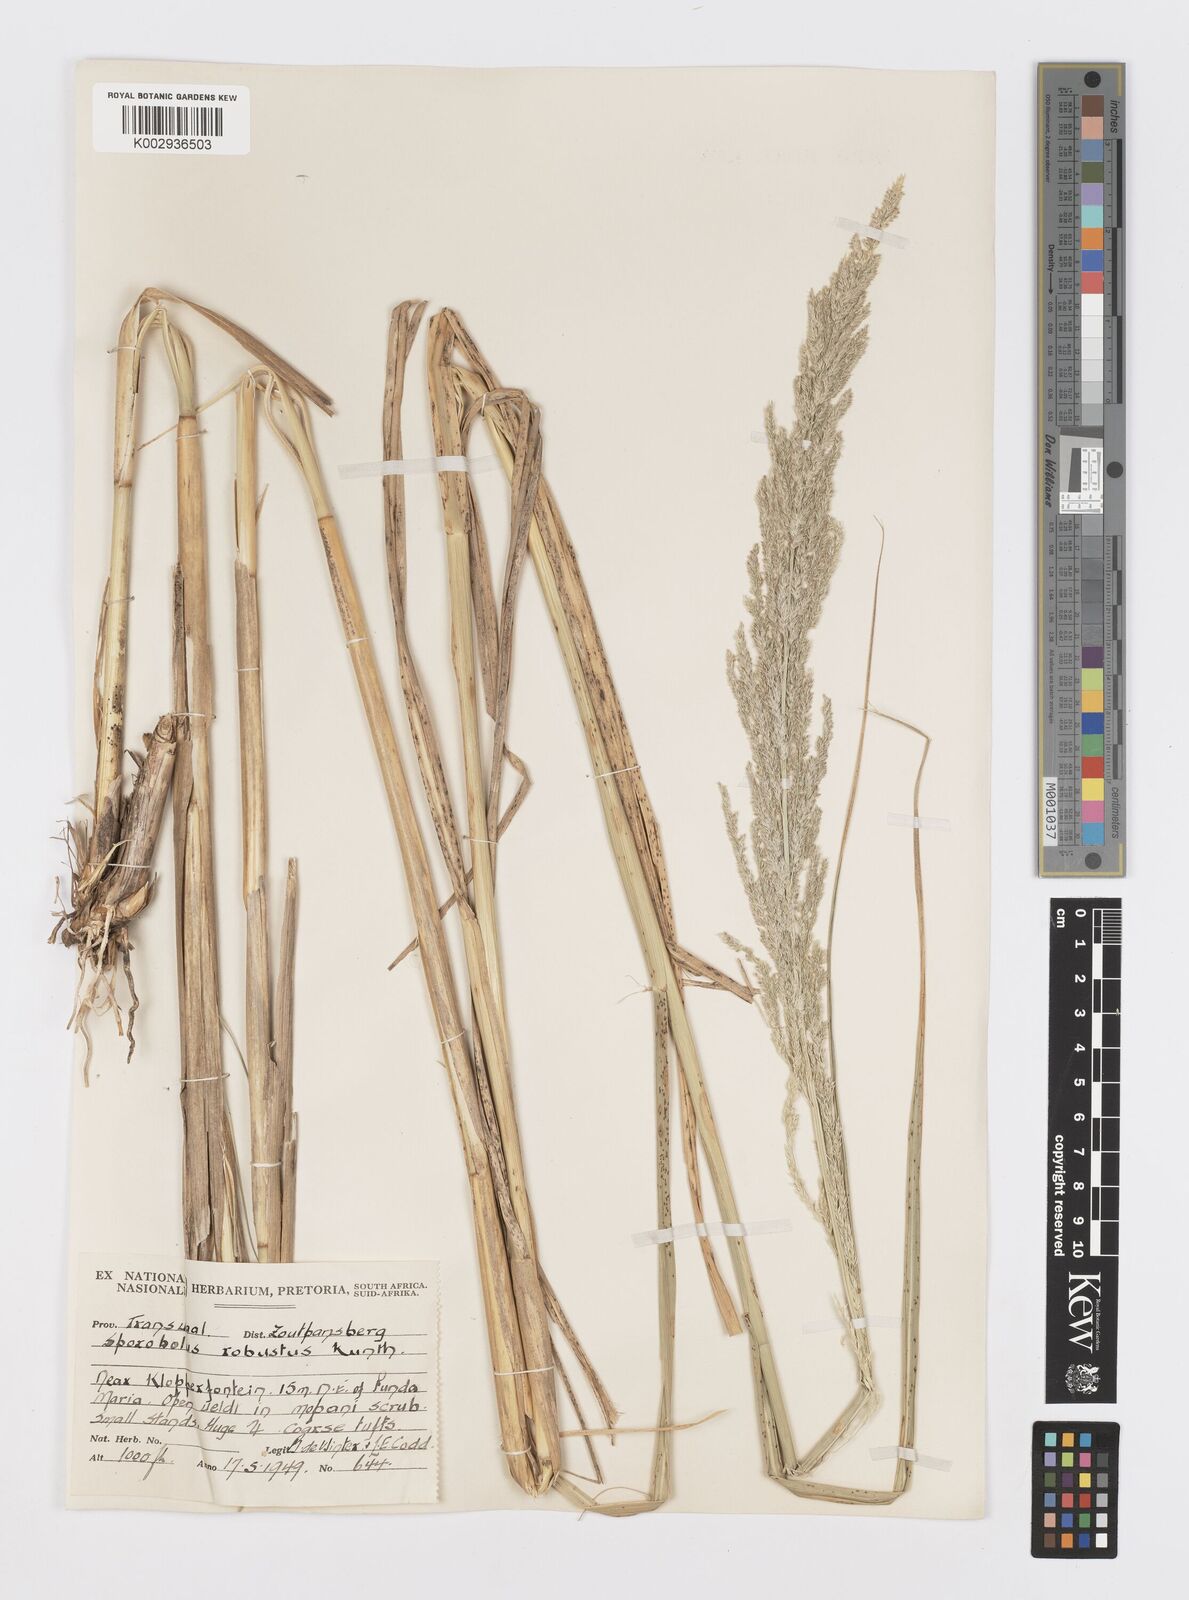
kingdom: Plantae
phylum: Tracheophyta
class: Liliopsida
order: Poales
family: Poaceae
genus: Sporobolus
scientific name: Sporobolus consimilis
